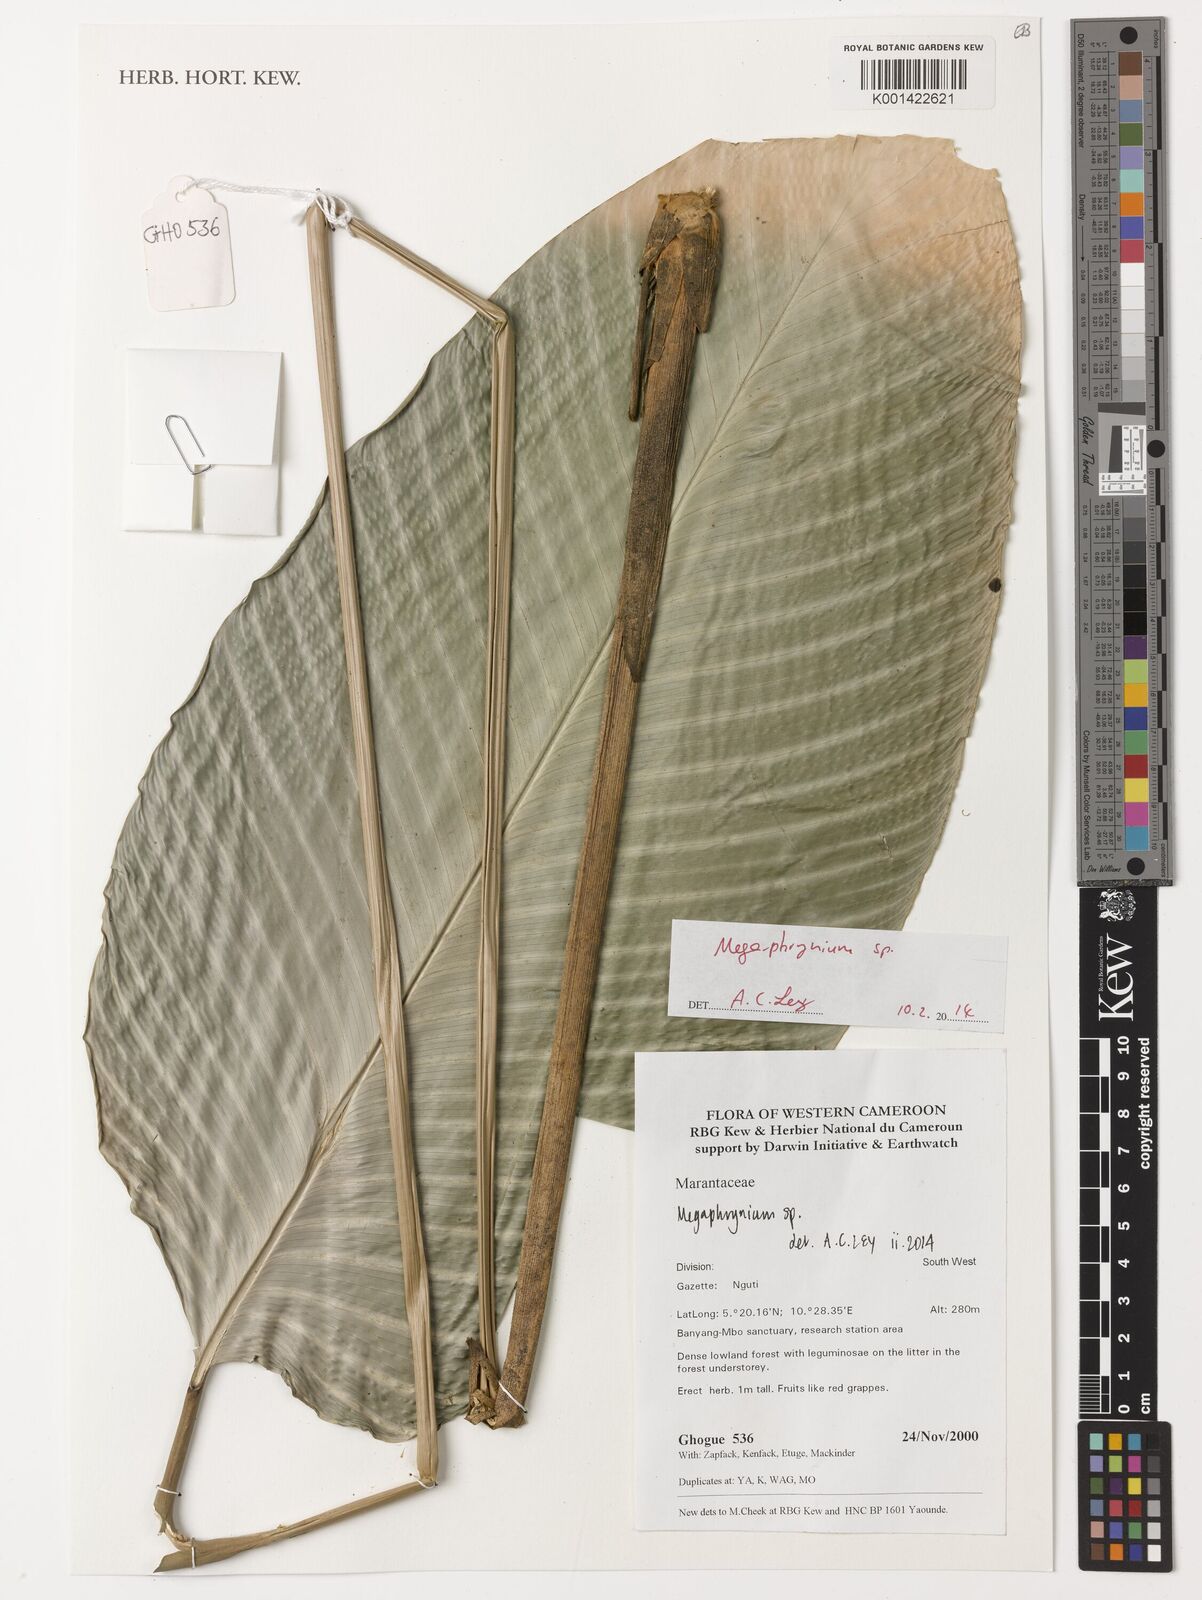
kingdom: Plantae
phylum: Tracheophyta
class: Liliopsida
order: Zingiberales
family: Marantaceae
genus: Megaphrynium
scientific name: Megaphrynium
